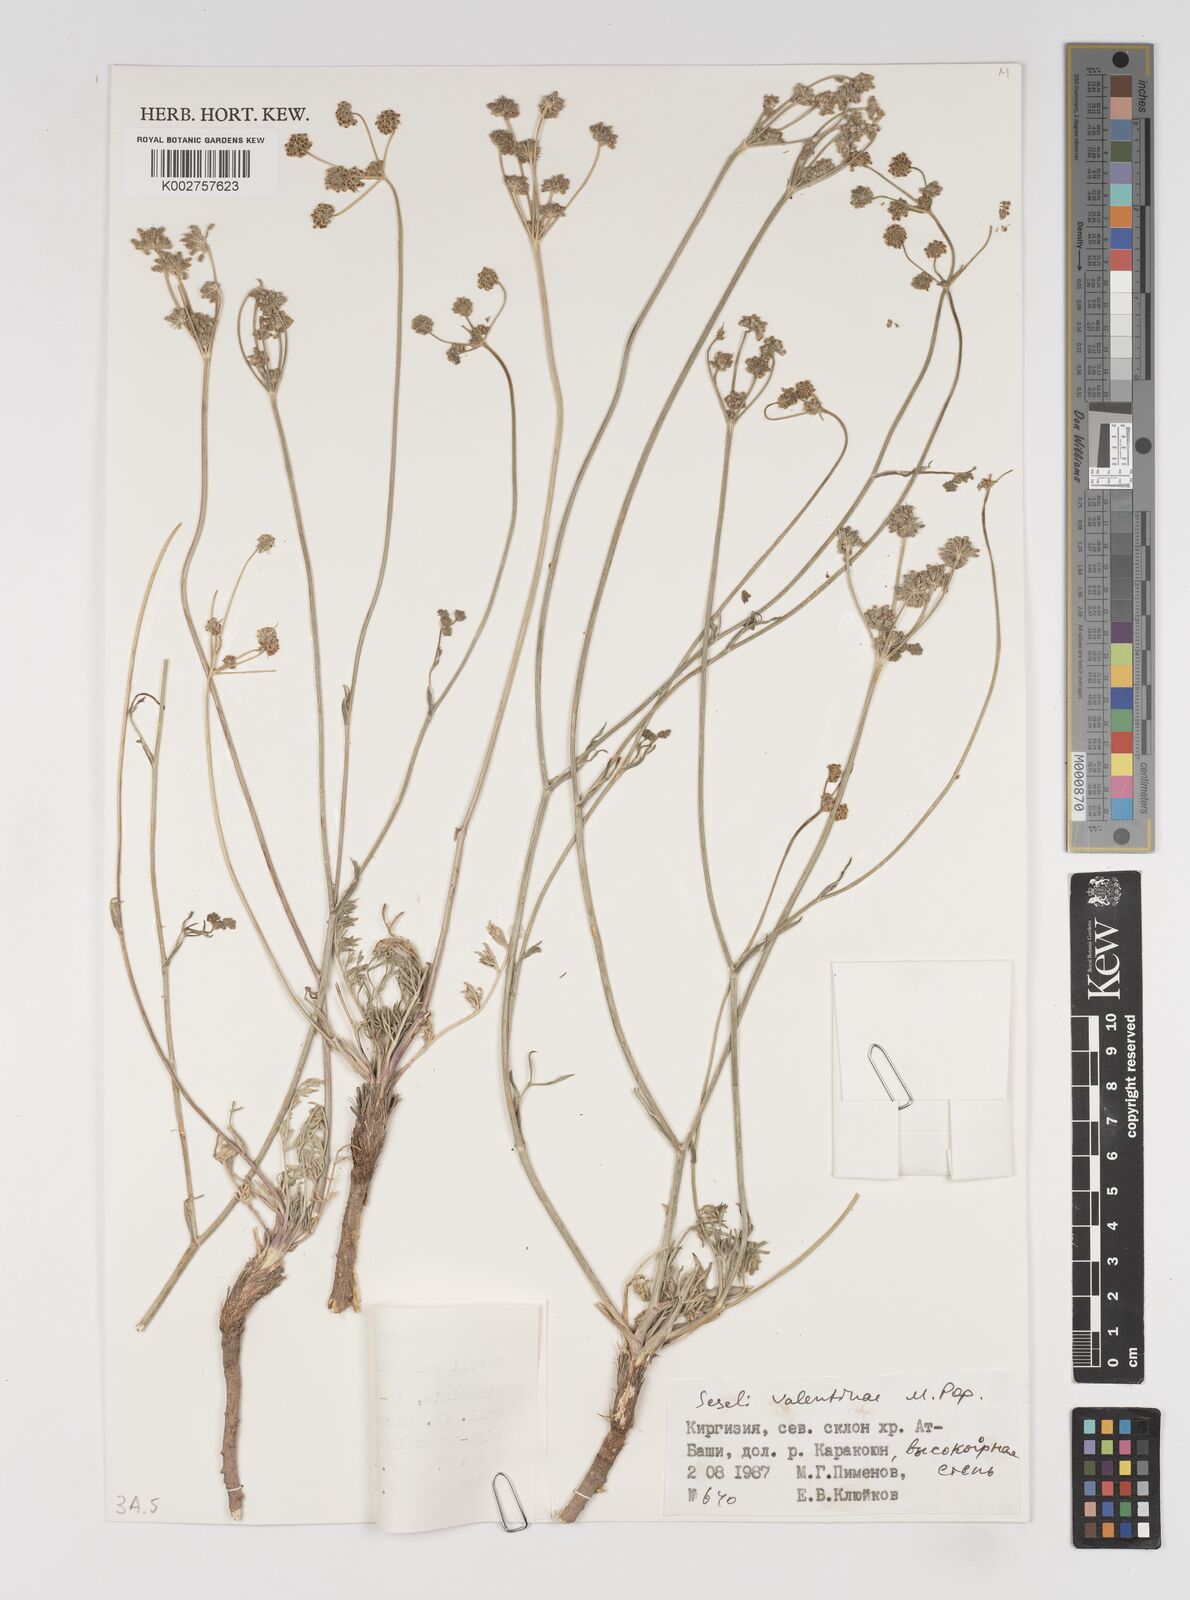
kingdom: Plantae
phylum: Tracheophyta
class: Magnoliopsida
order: Apiales
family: Apiaceae
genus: Seseli
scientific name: Seseli valentinae
